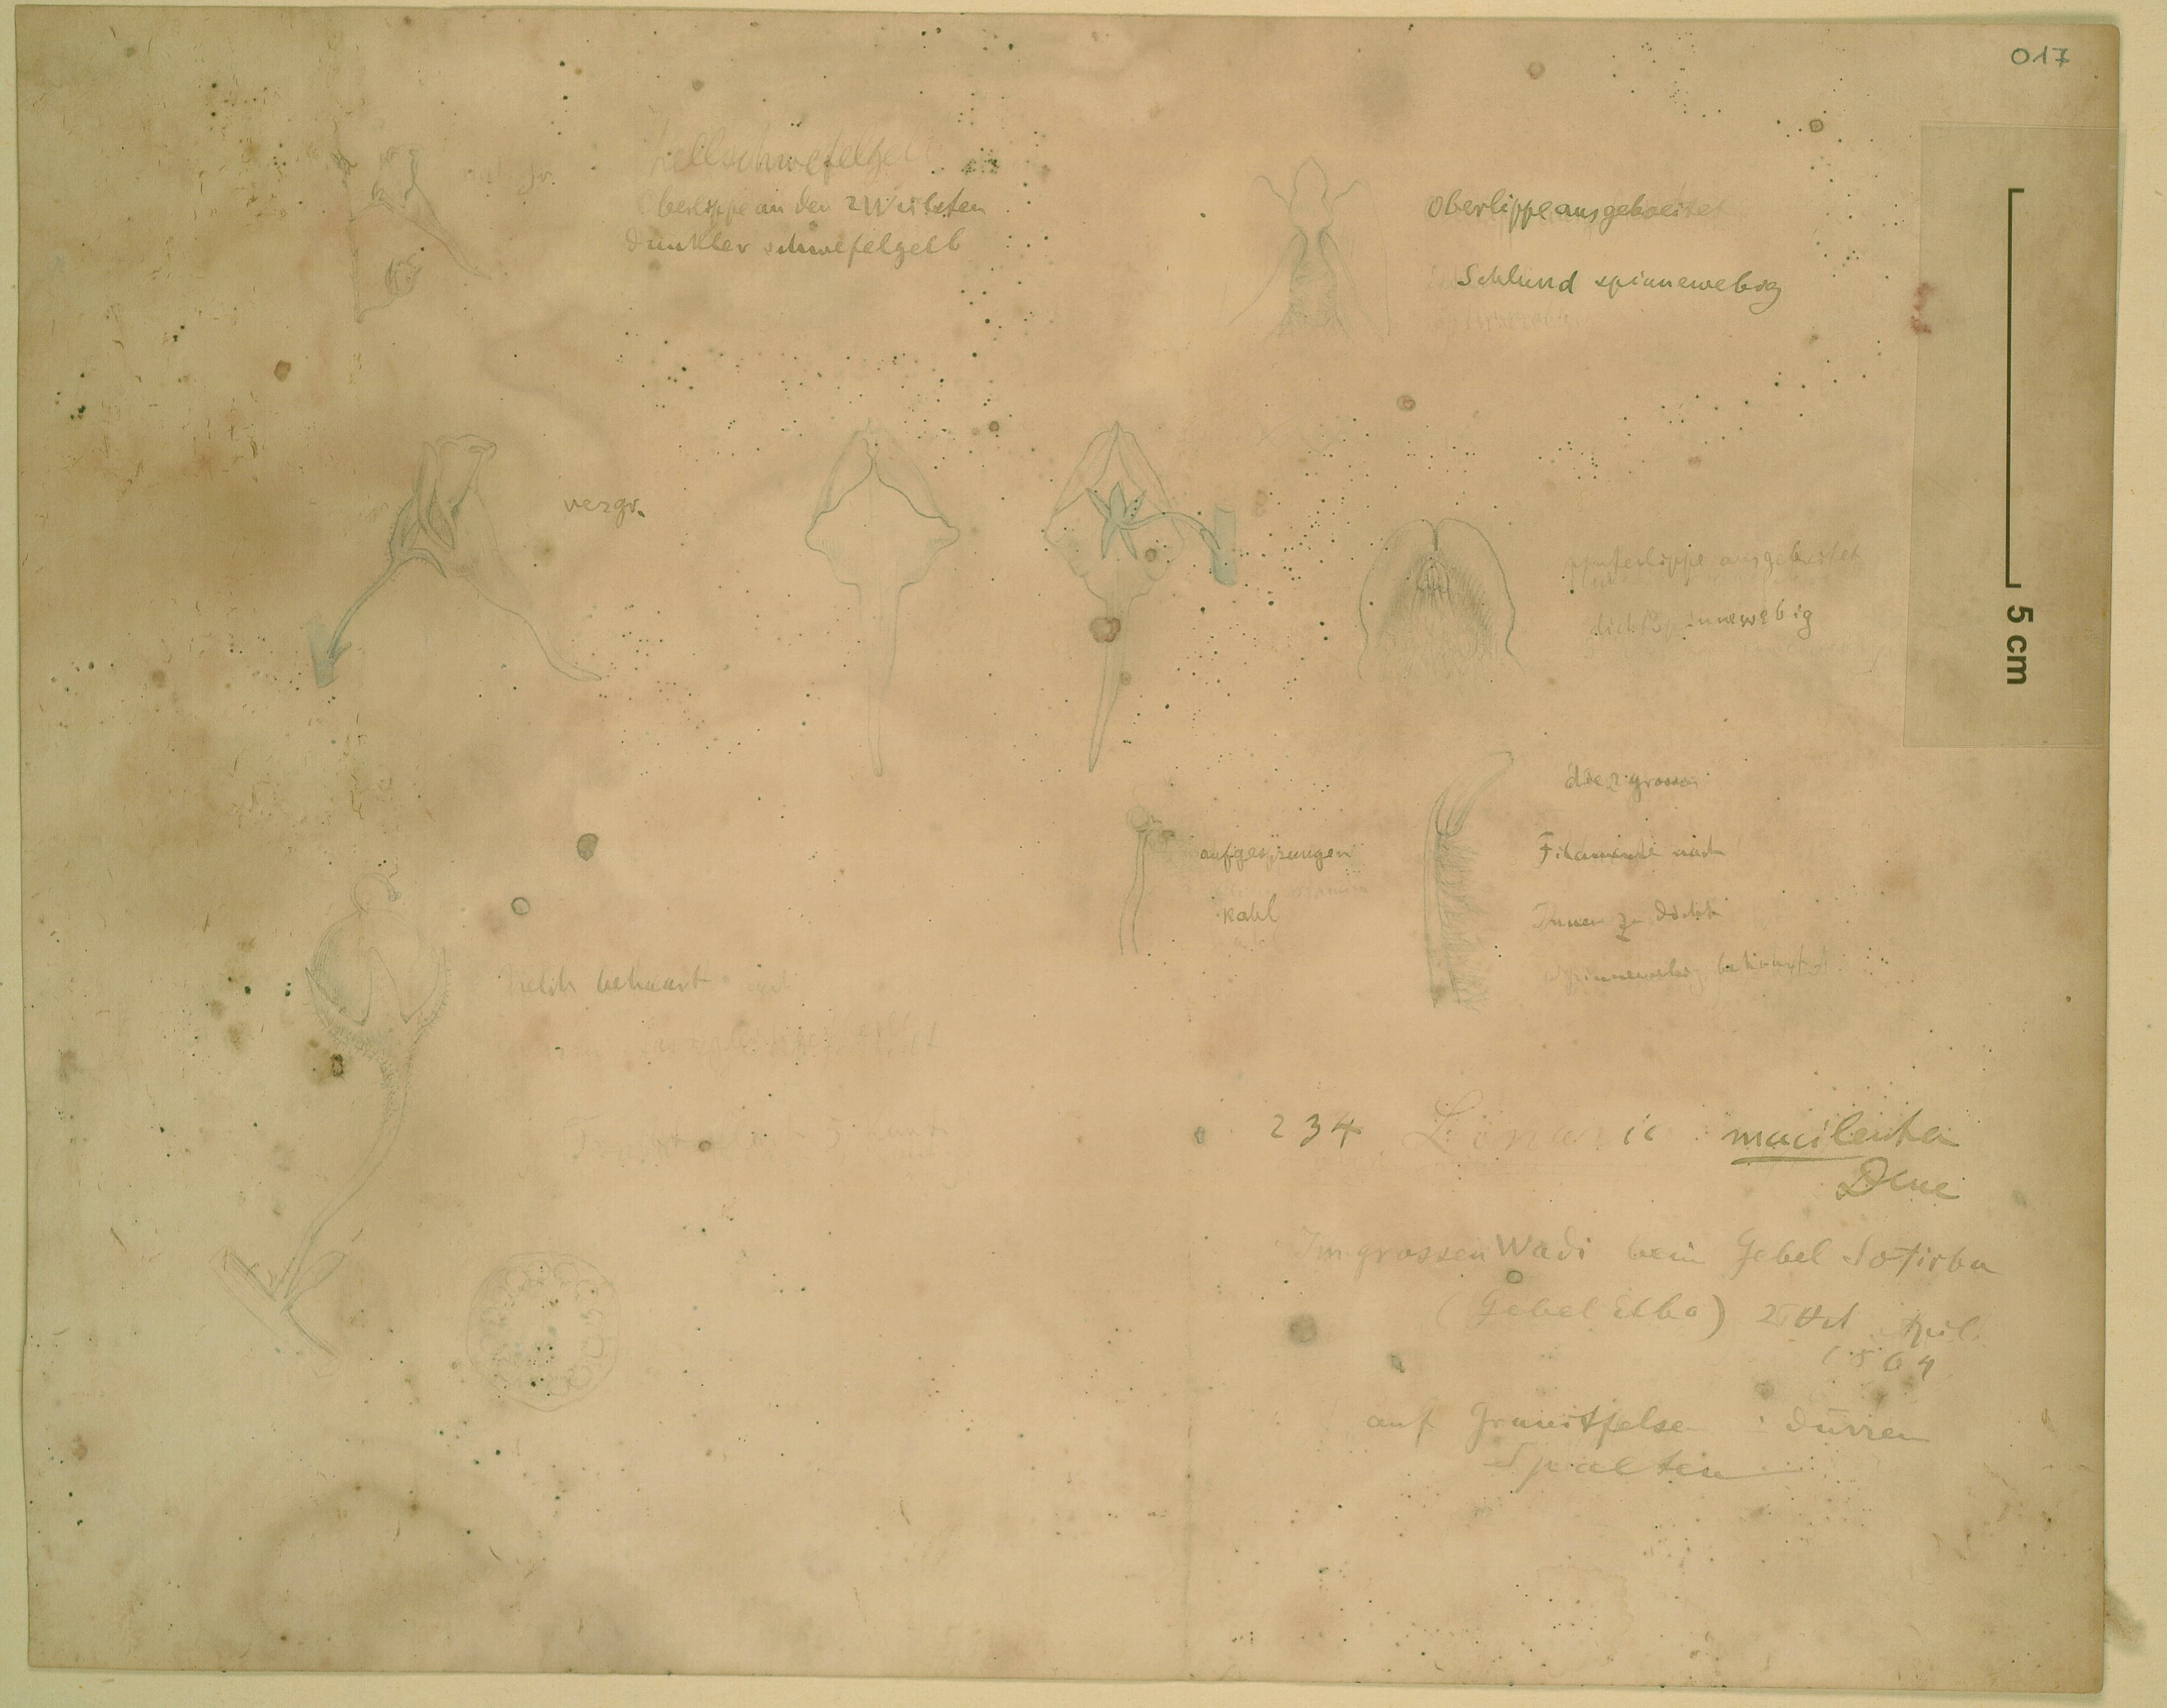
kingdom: Plantae
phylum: Tracheophyta
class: Magnoliopsida
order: Lamiales
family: Plantaginaceae
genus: Nanorrhinum
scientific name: Nanorrhinum macilentum
